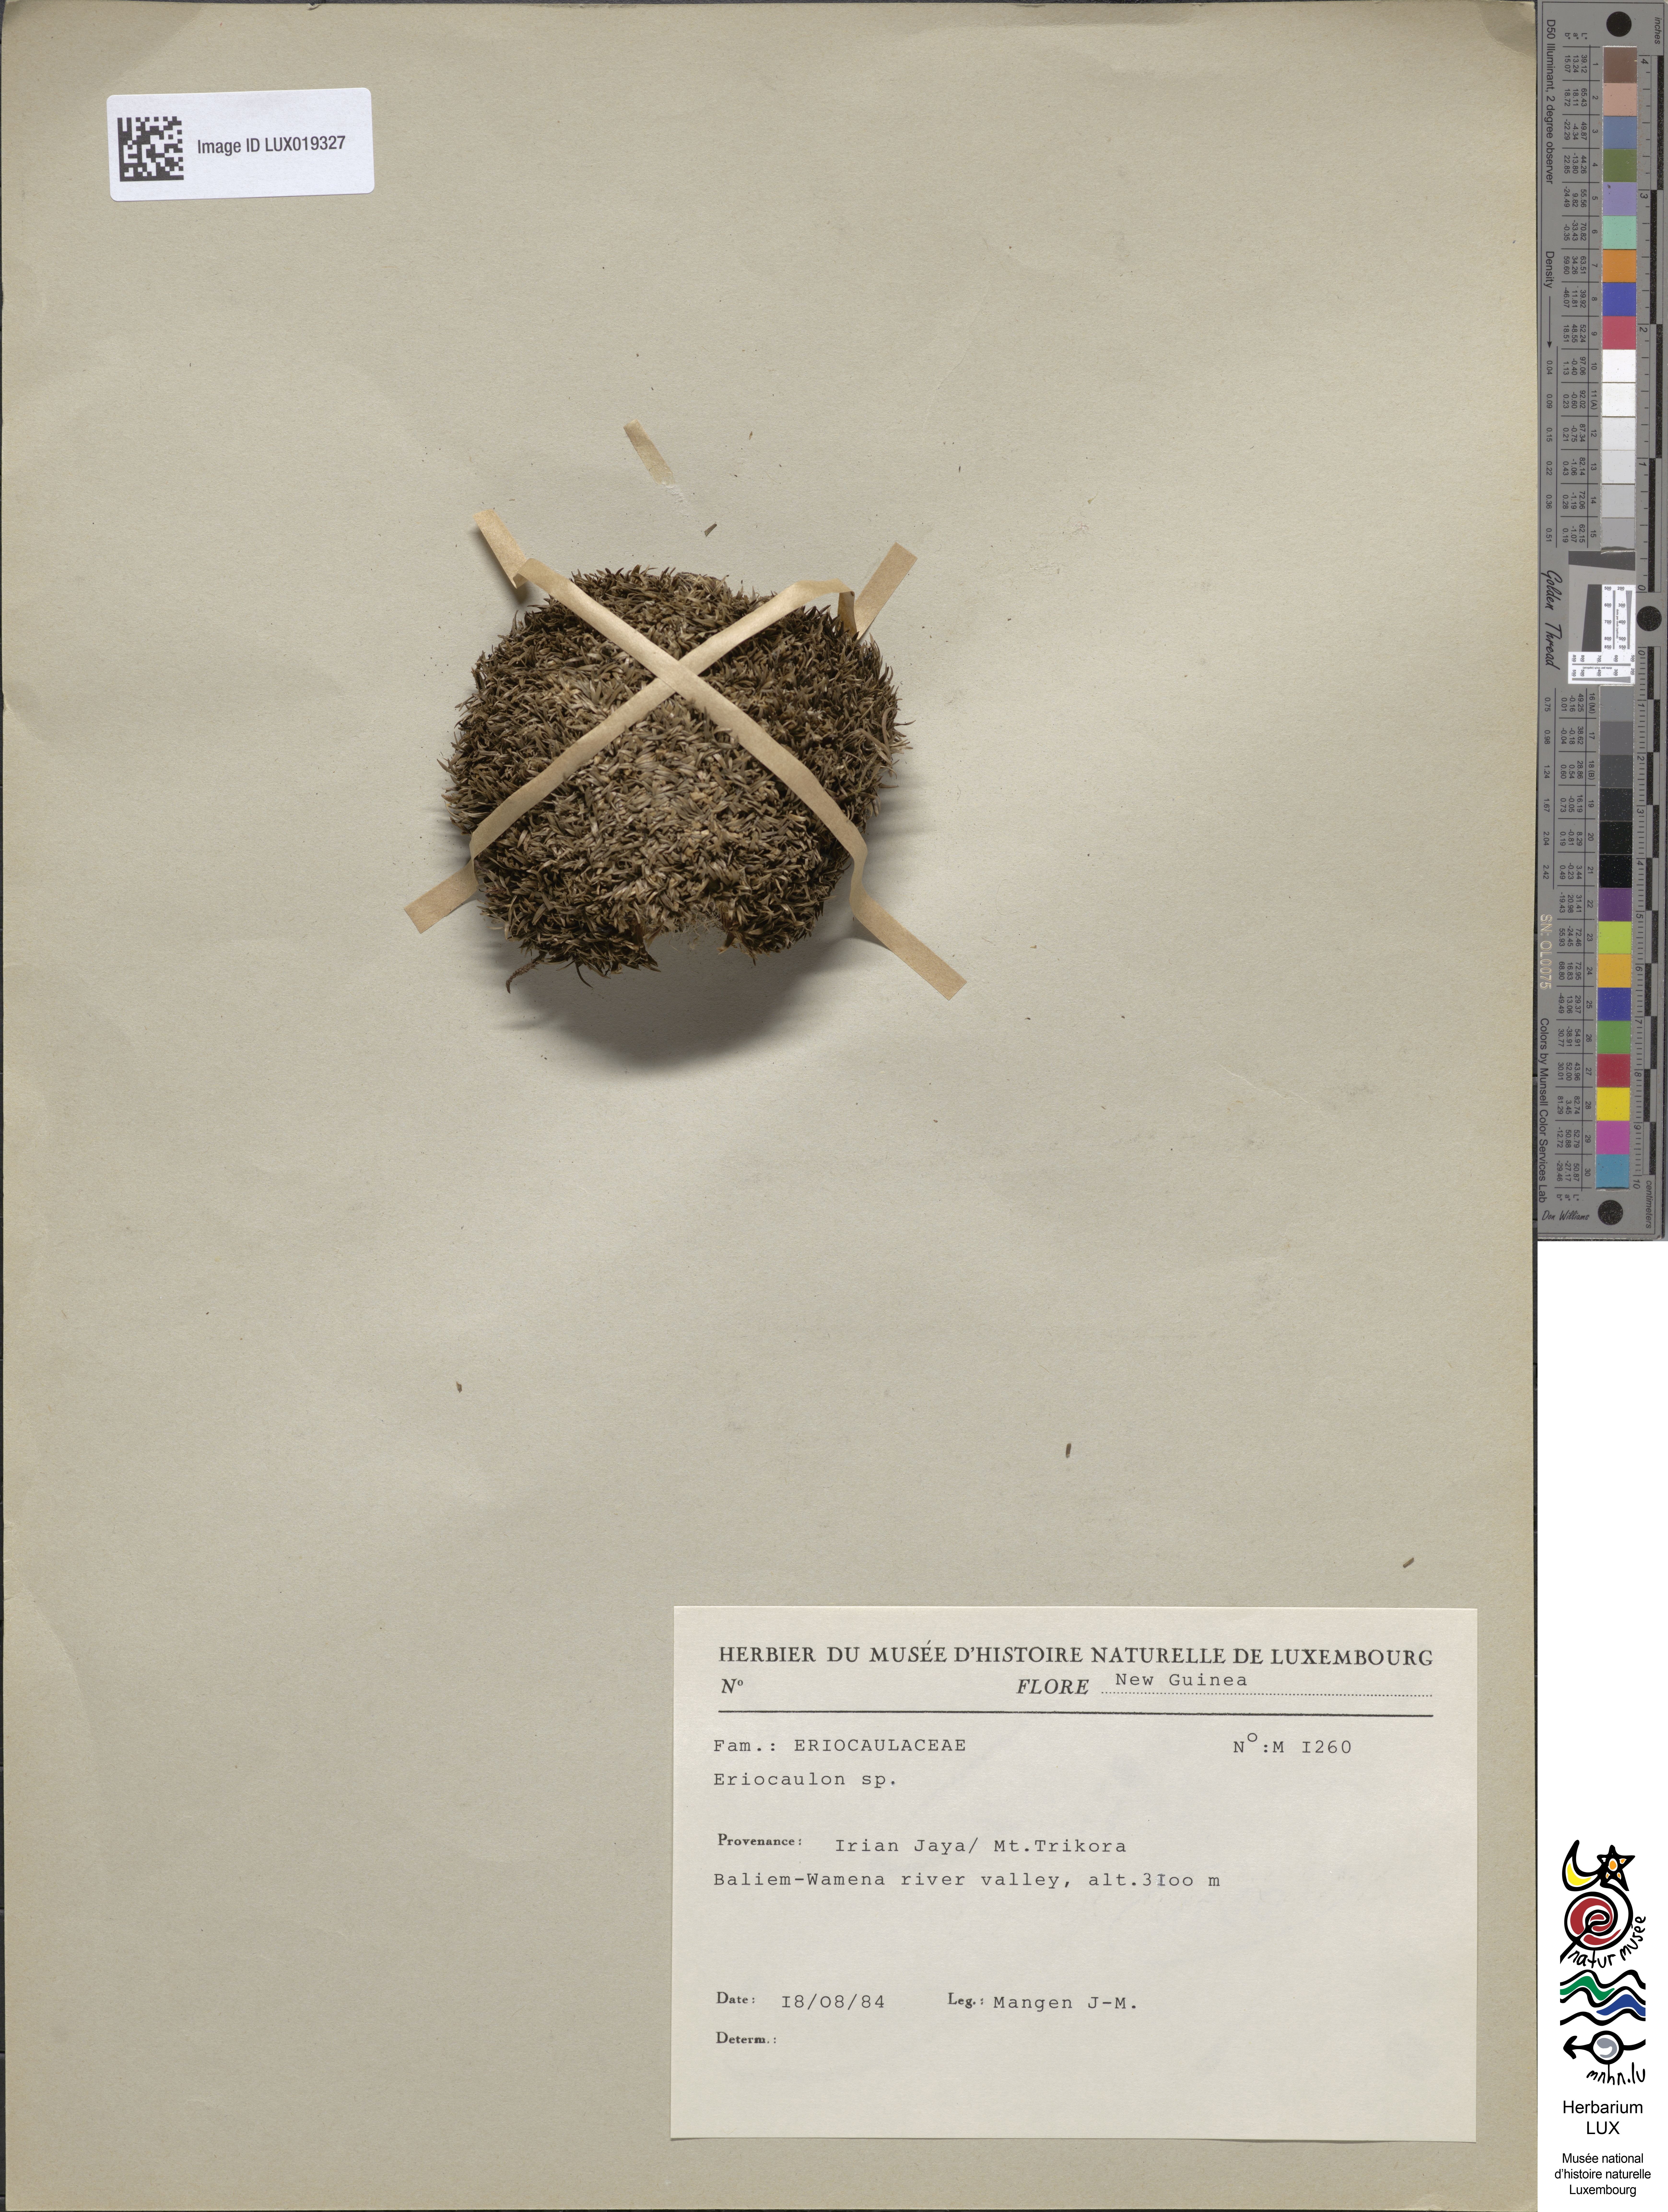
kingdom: Plantae
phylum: Tracheophyta
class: Liliopsida
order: Poales
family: Eriocaulaceae
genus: Eriocaulon
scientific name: Eriocaulon
